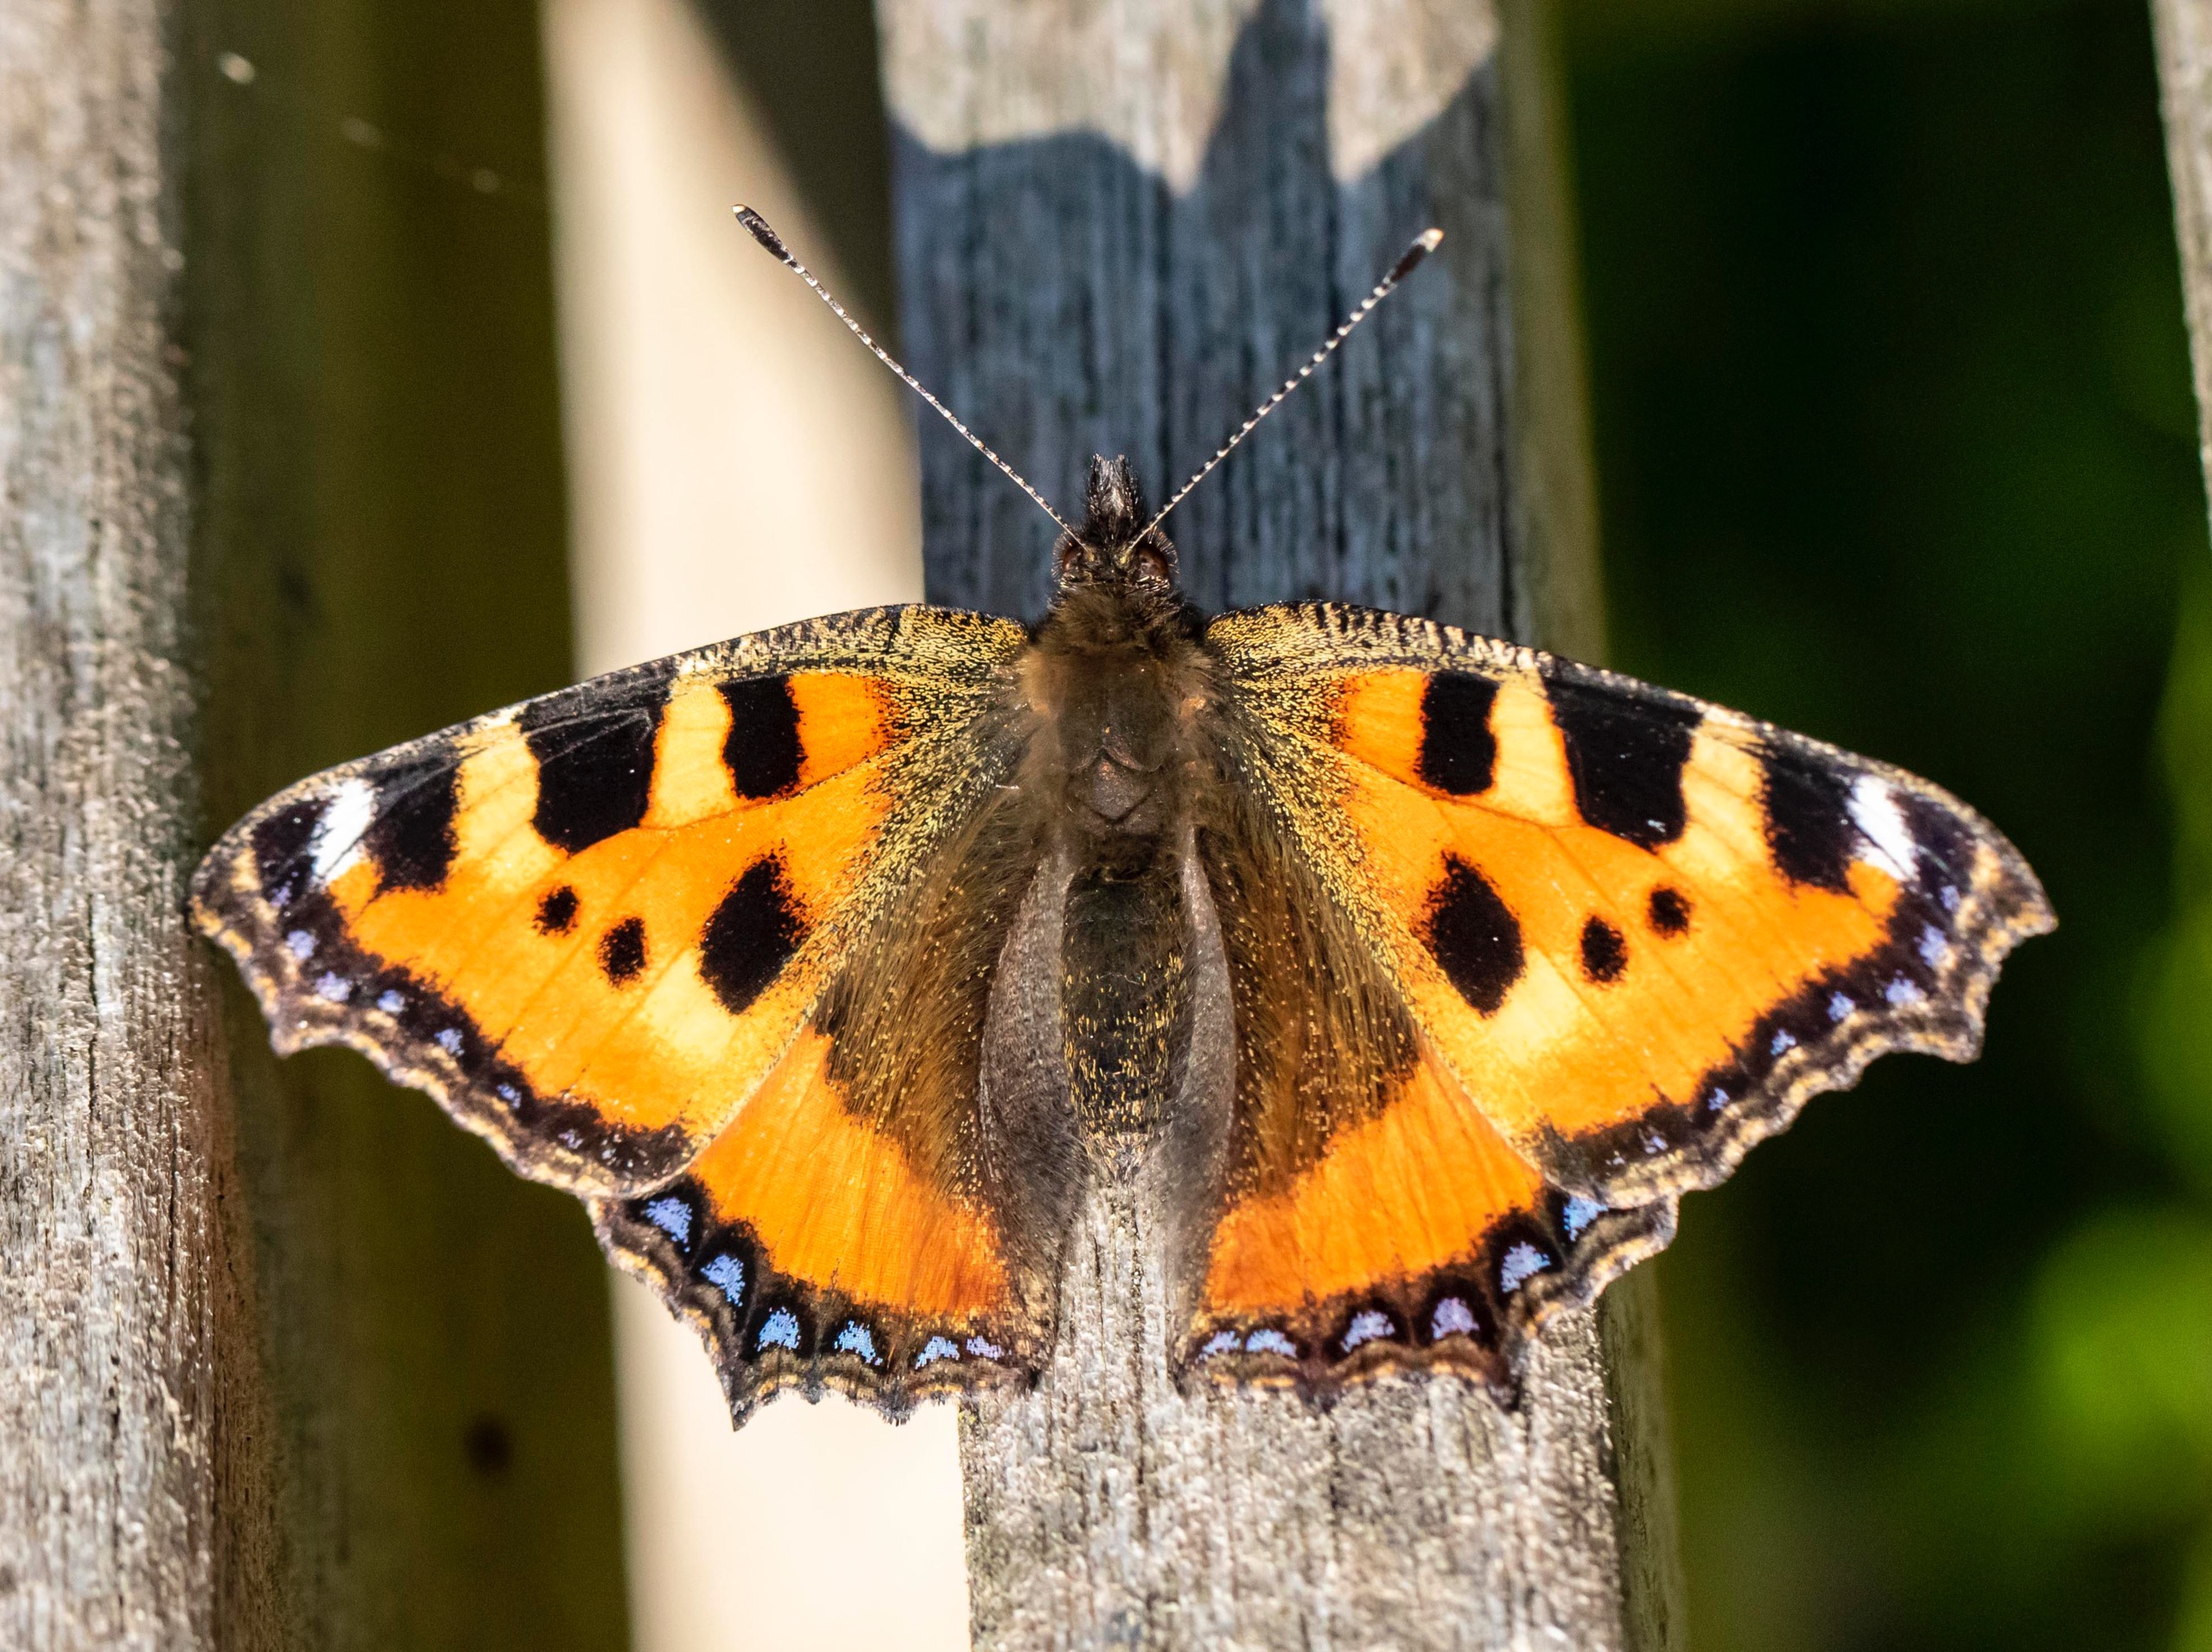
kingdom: Animalia
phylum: Arthropoda
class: Insecta
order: Lepidoptera
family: Nymphalidae
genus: Aglais
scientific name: Aglais urticae
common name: Nældens takvinge
